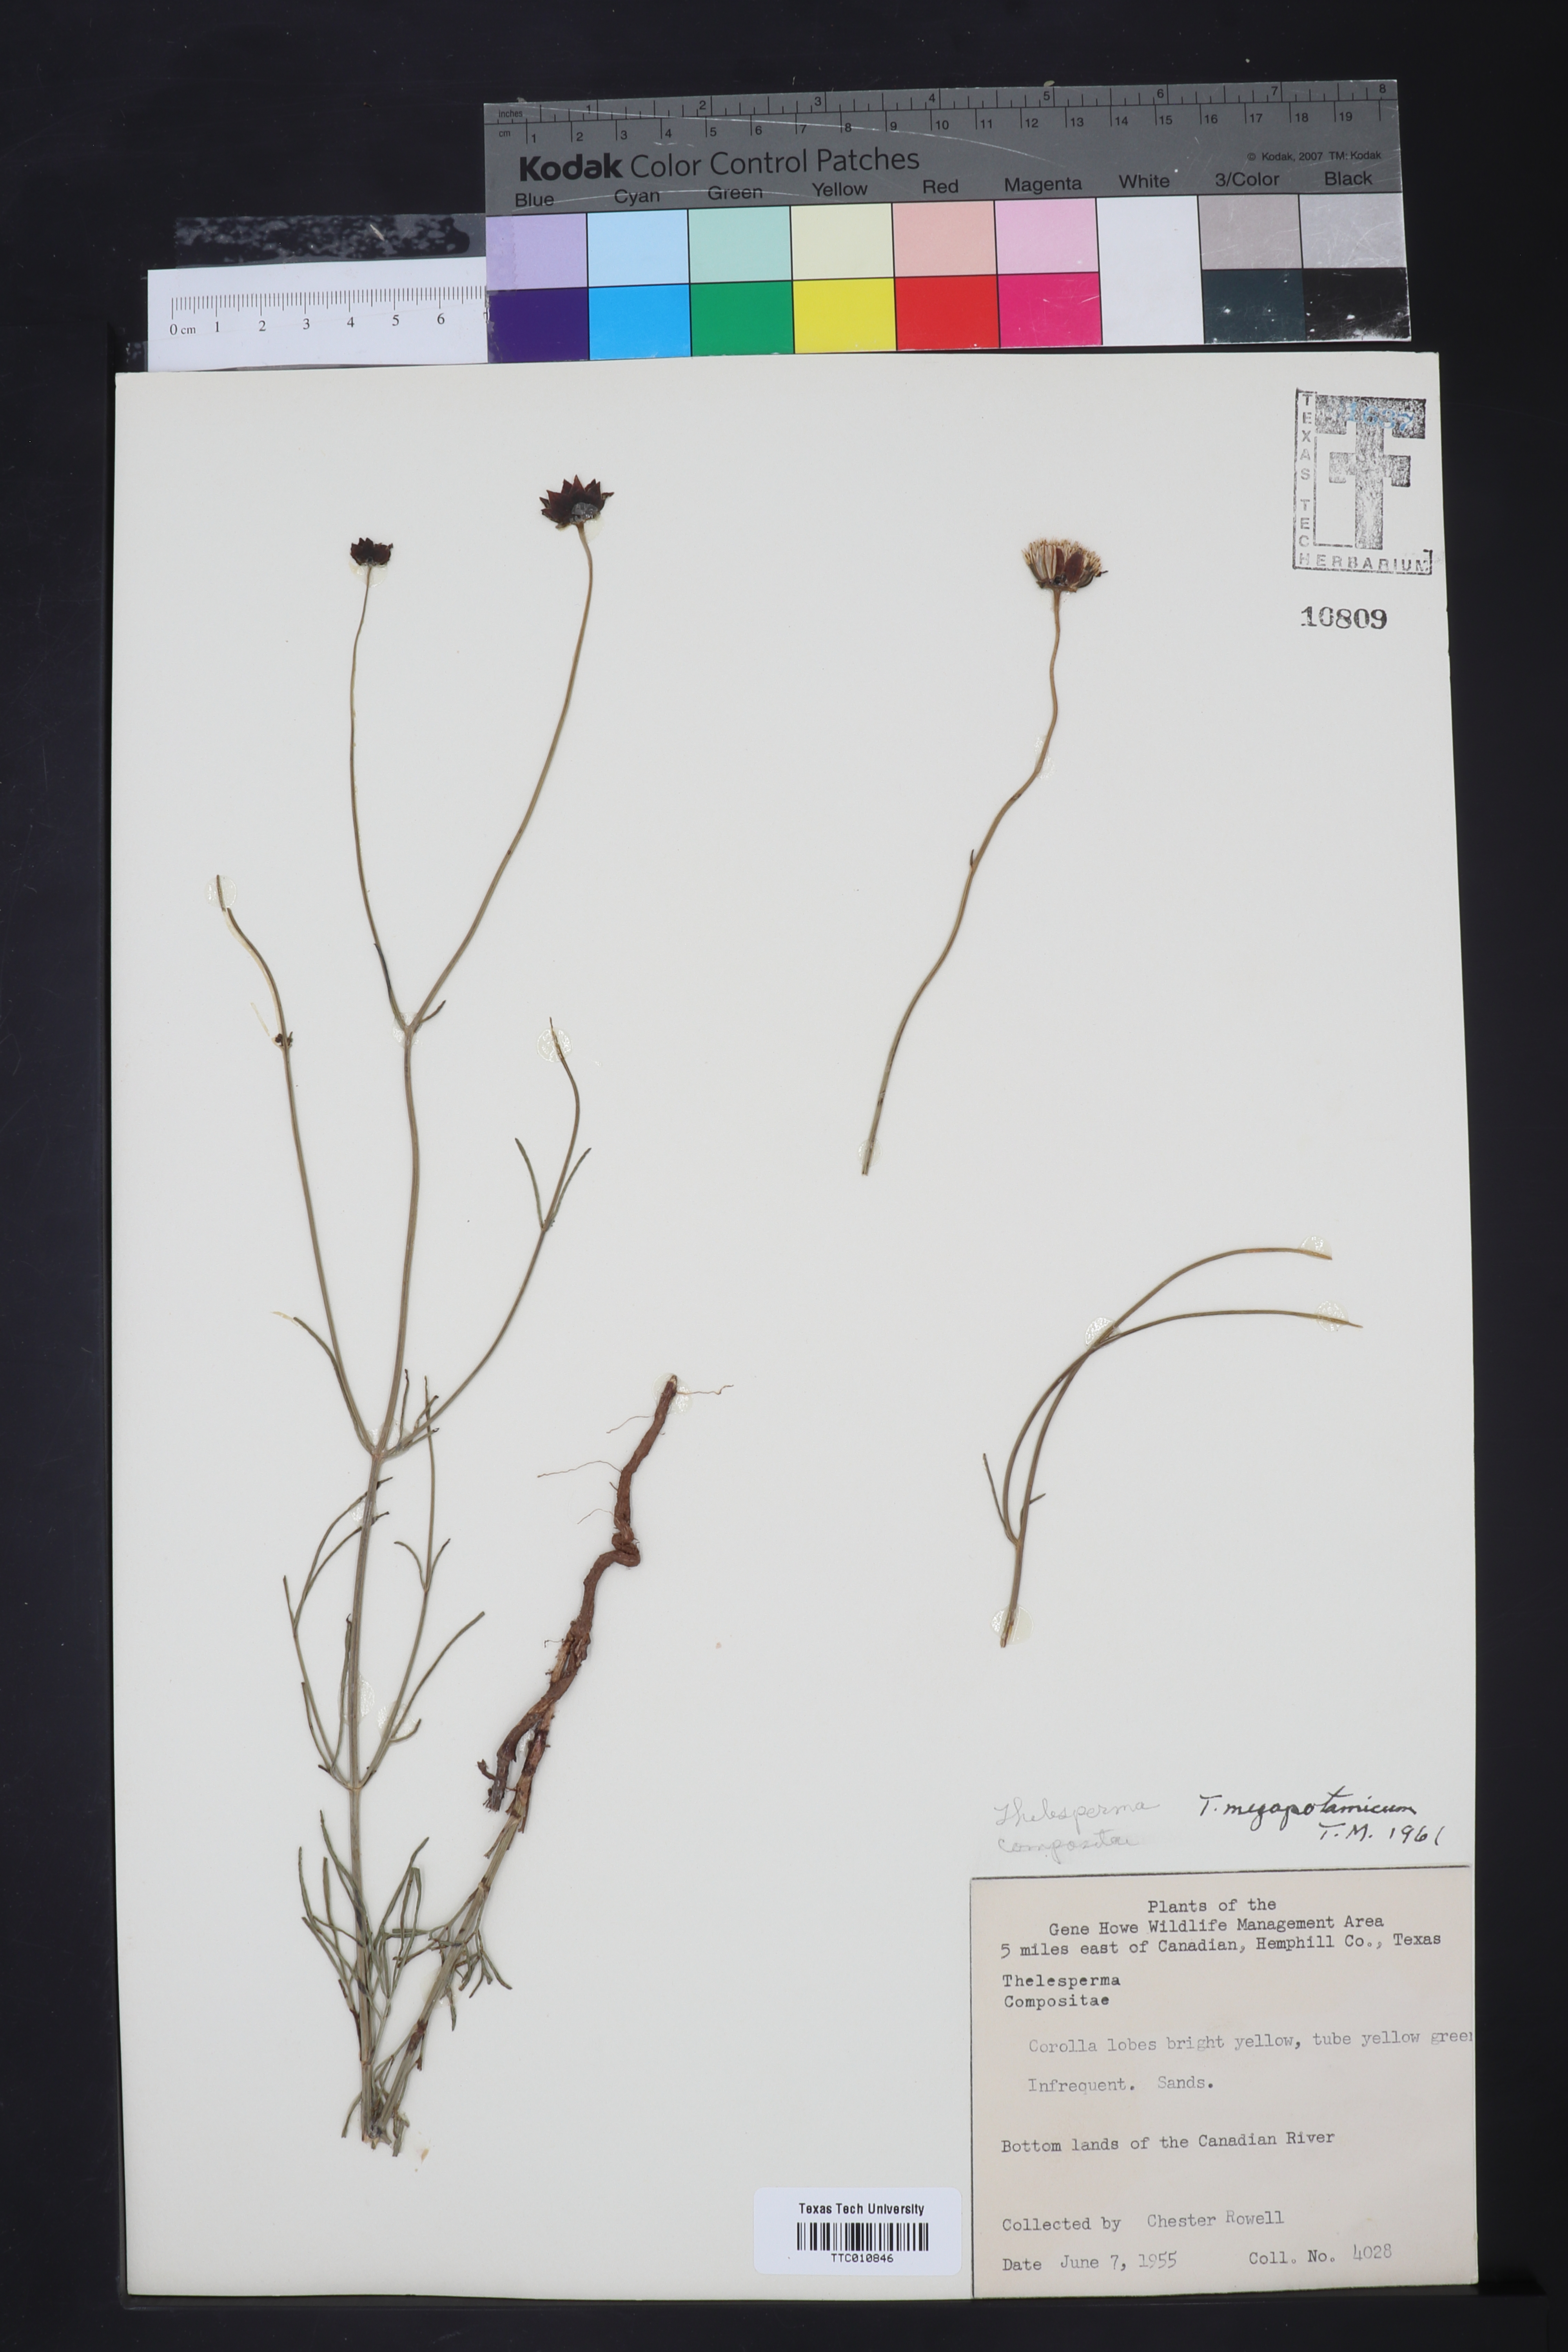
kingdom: Plantae
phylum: Tracheophyta
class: Magnoliopsida
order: Asterales
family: Asteraceae
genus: Thelesperma
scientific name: Thelesperma megapotamicum
